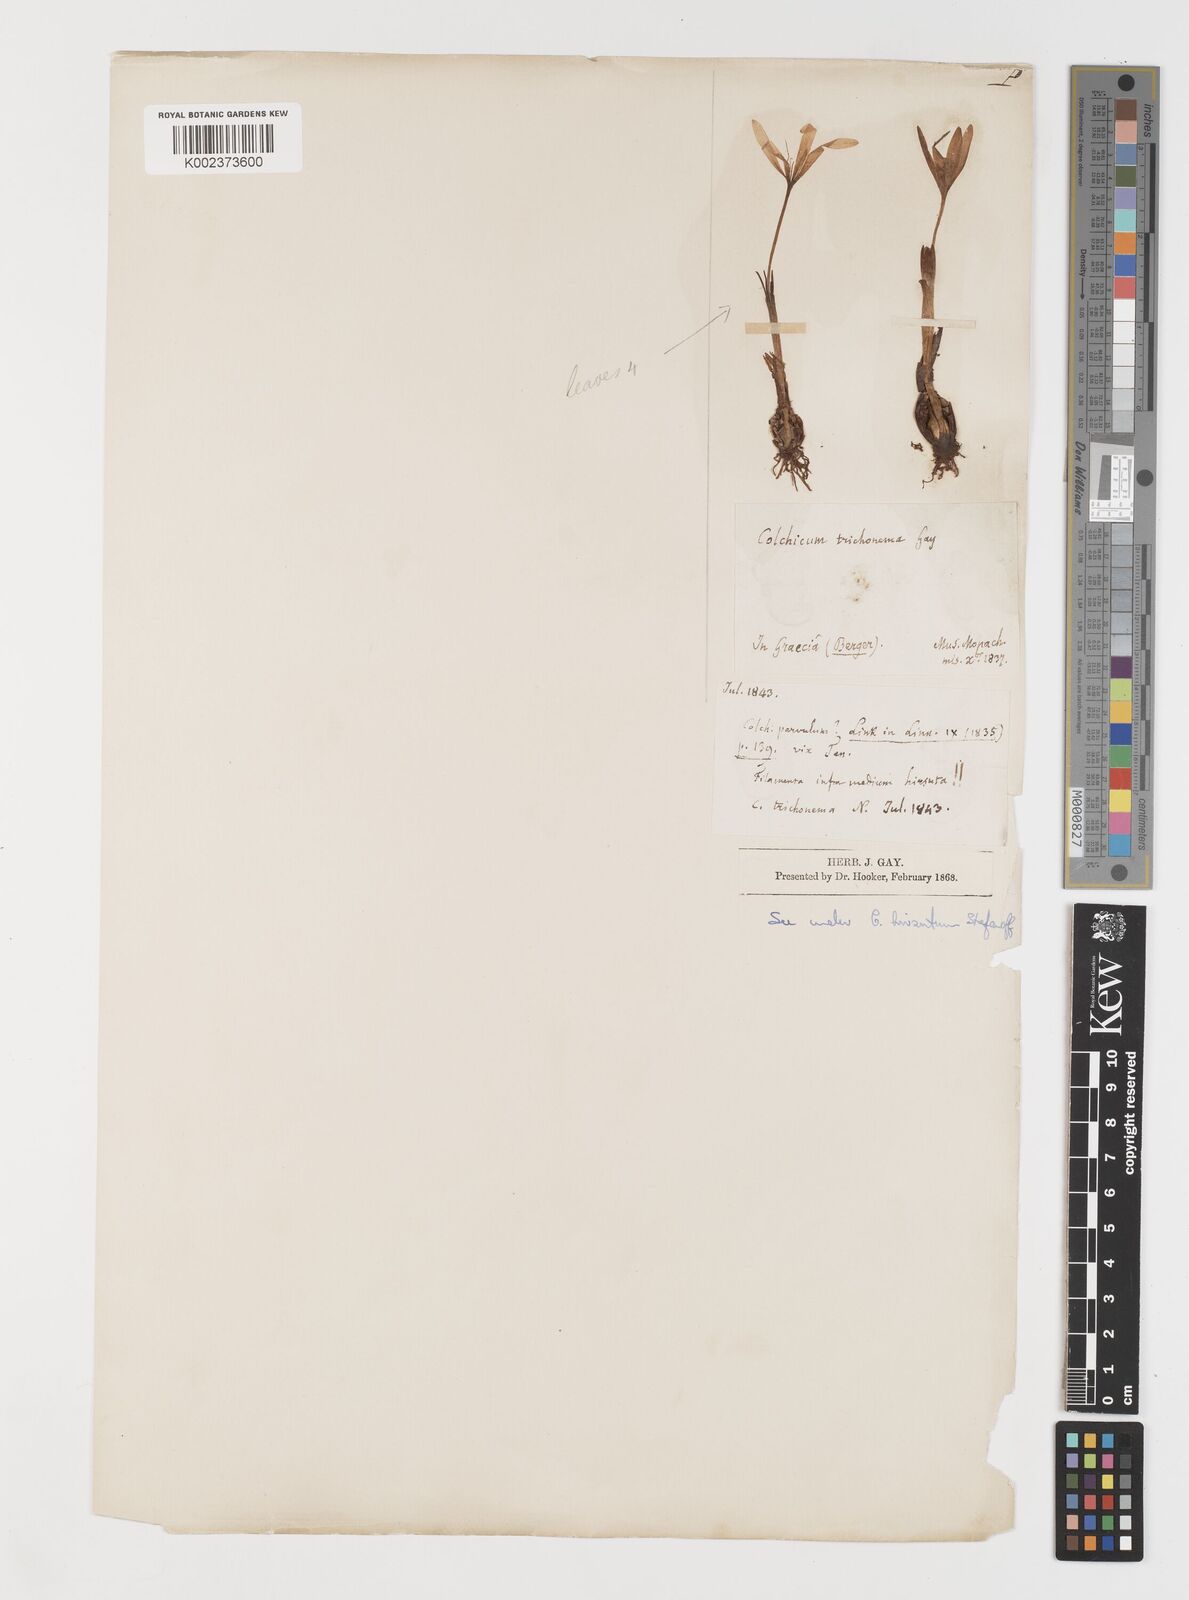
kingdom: Plantae
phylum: Tracheophyta
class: Liliopsida
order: Liliales
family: Colchicaceae
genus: Colchicum
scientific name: Colchicum hirsutum
